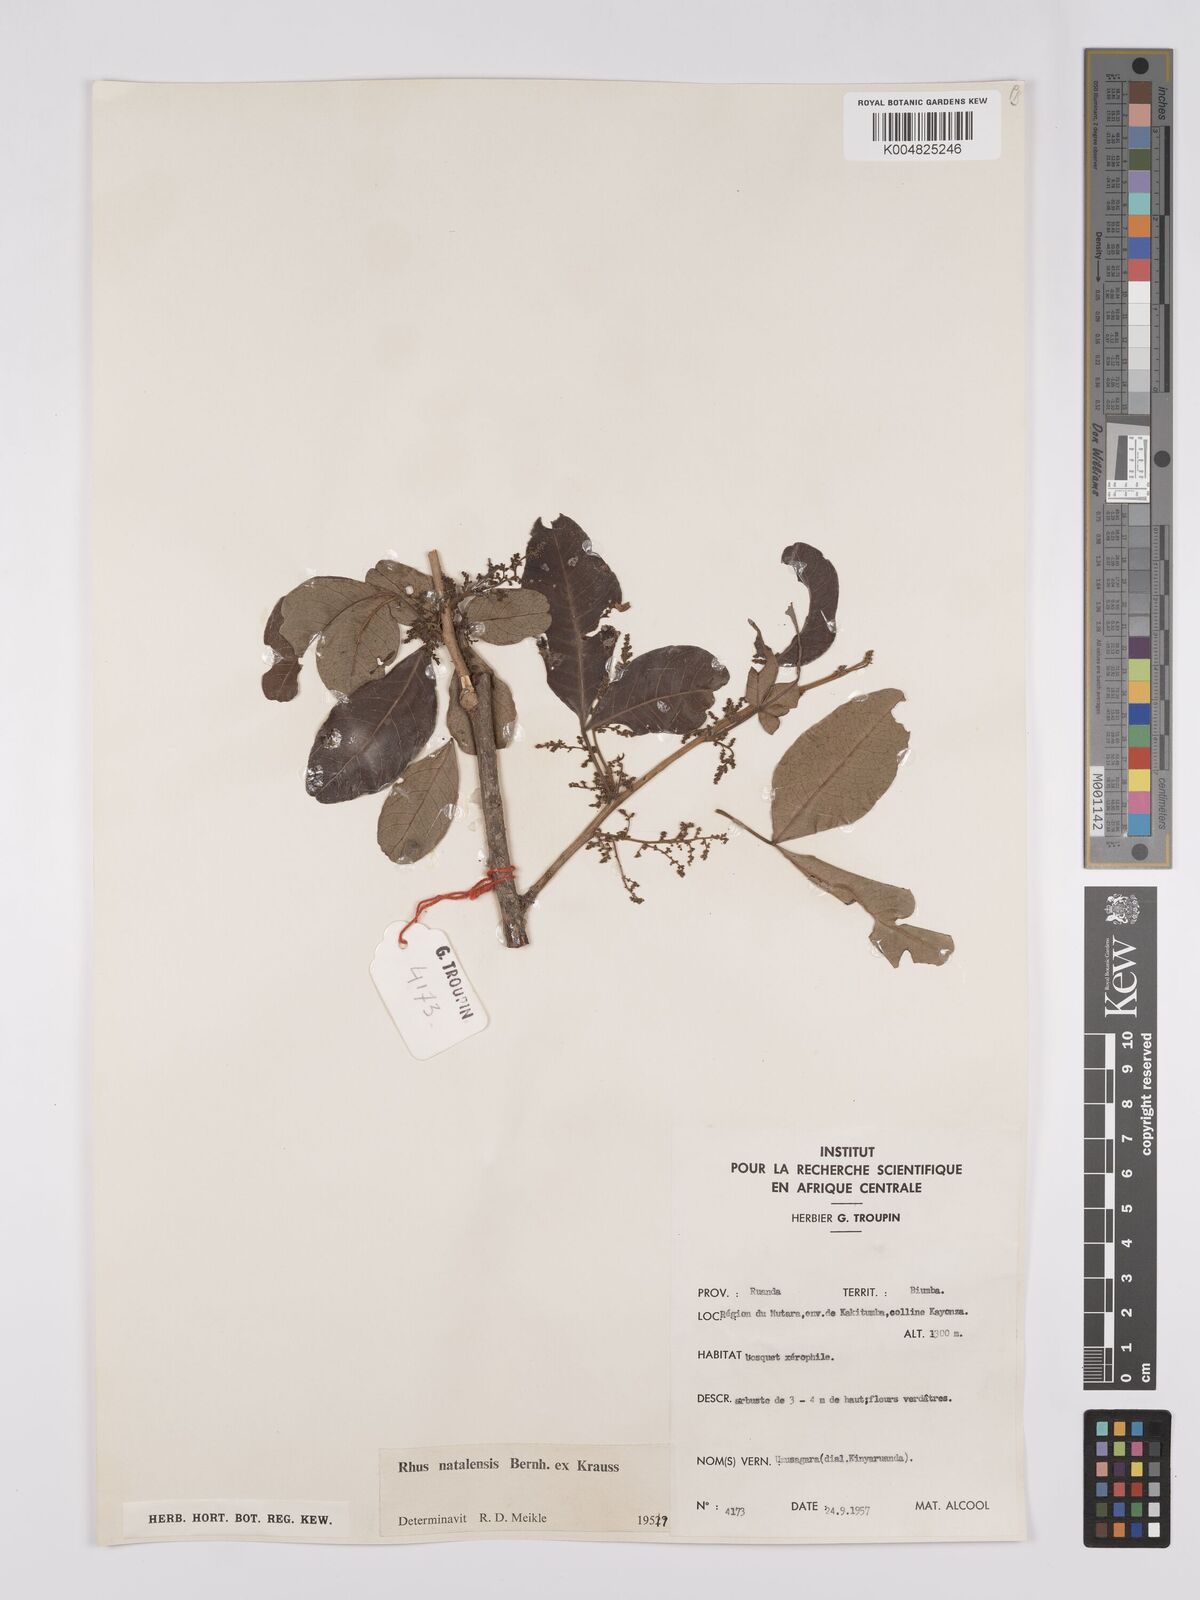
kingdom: Plantae
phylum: Tracheophyta
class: Magnoliopsida
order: Sapindales
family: Anacardiaceae
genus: Searsia
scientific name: Searsia natalensis
